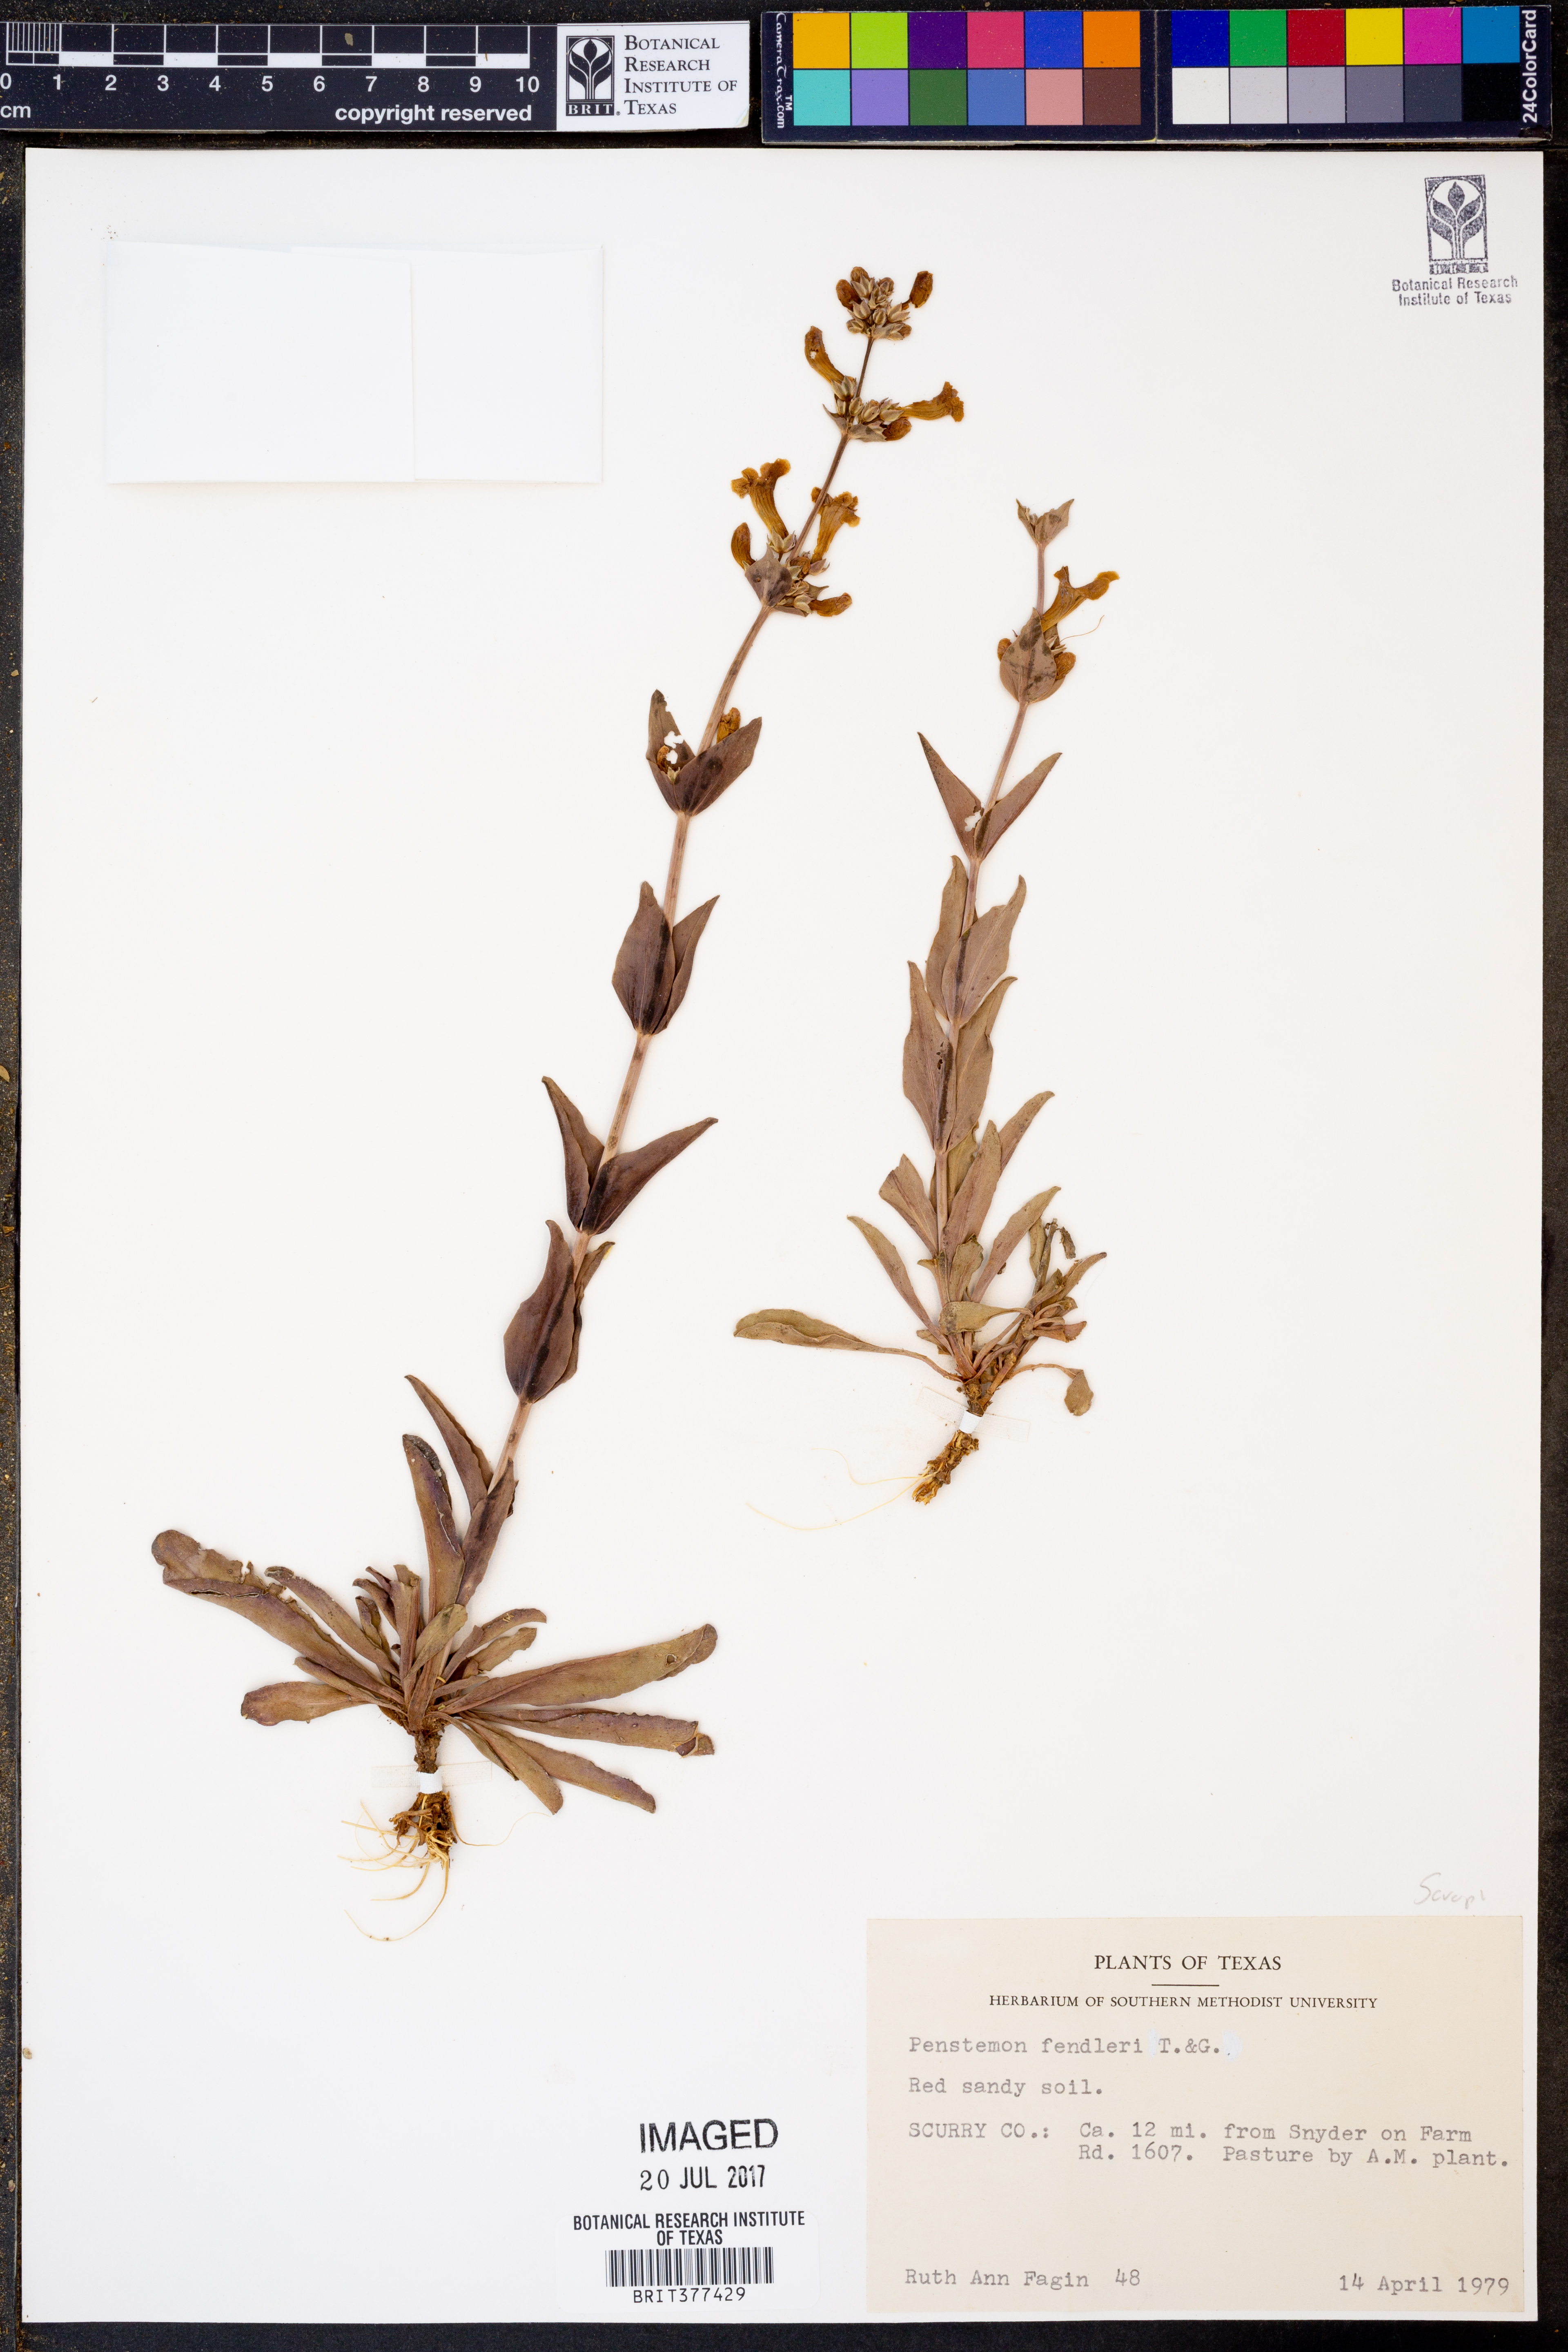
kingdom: Plantae
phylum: Tracheophyta
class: Magnoliopsida
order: Lamiales
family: Plantaginaceae
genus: Penstemon
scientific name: Penstemon fendleri
